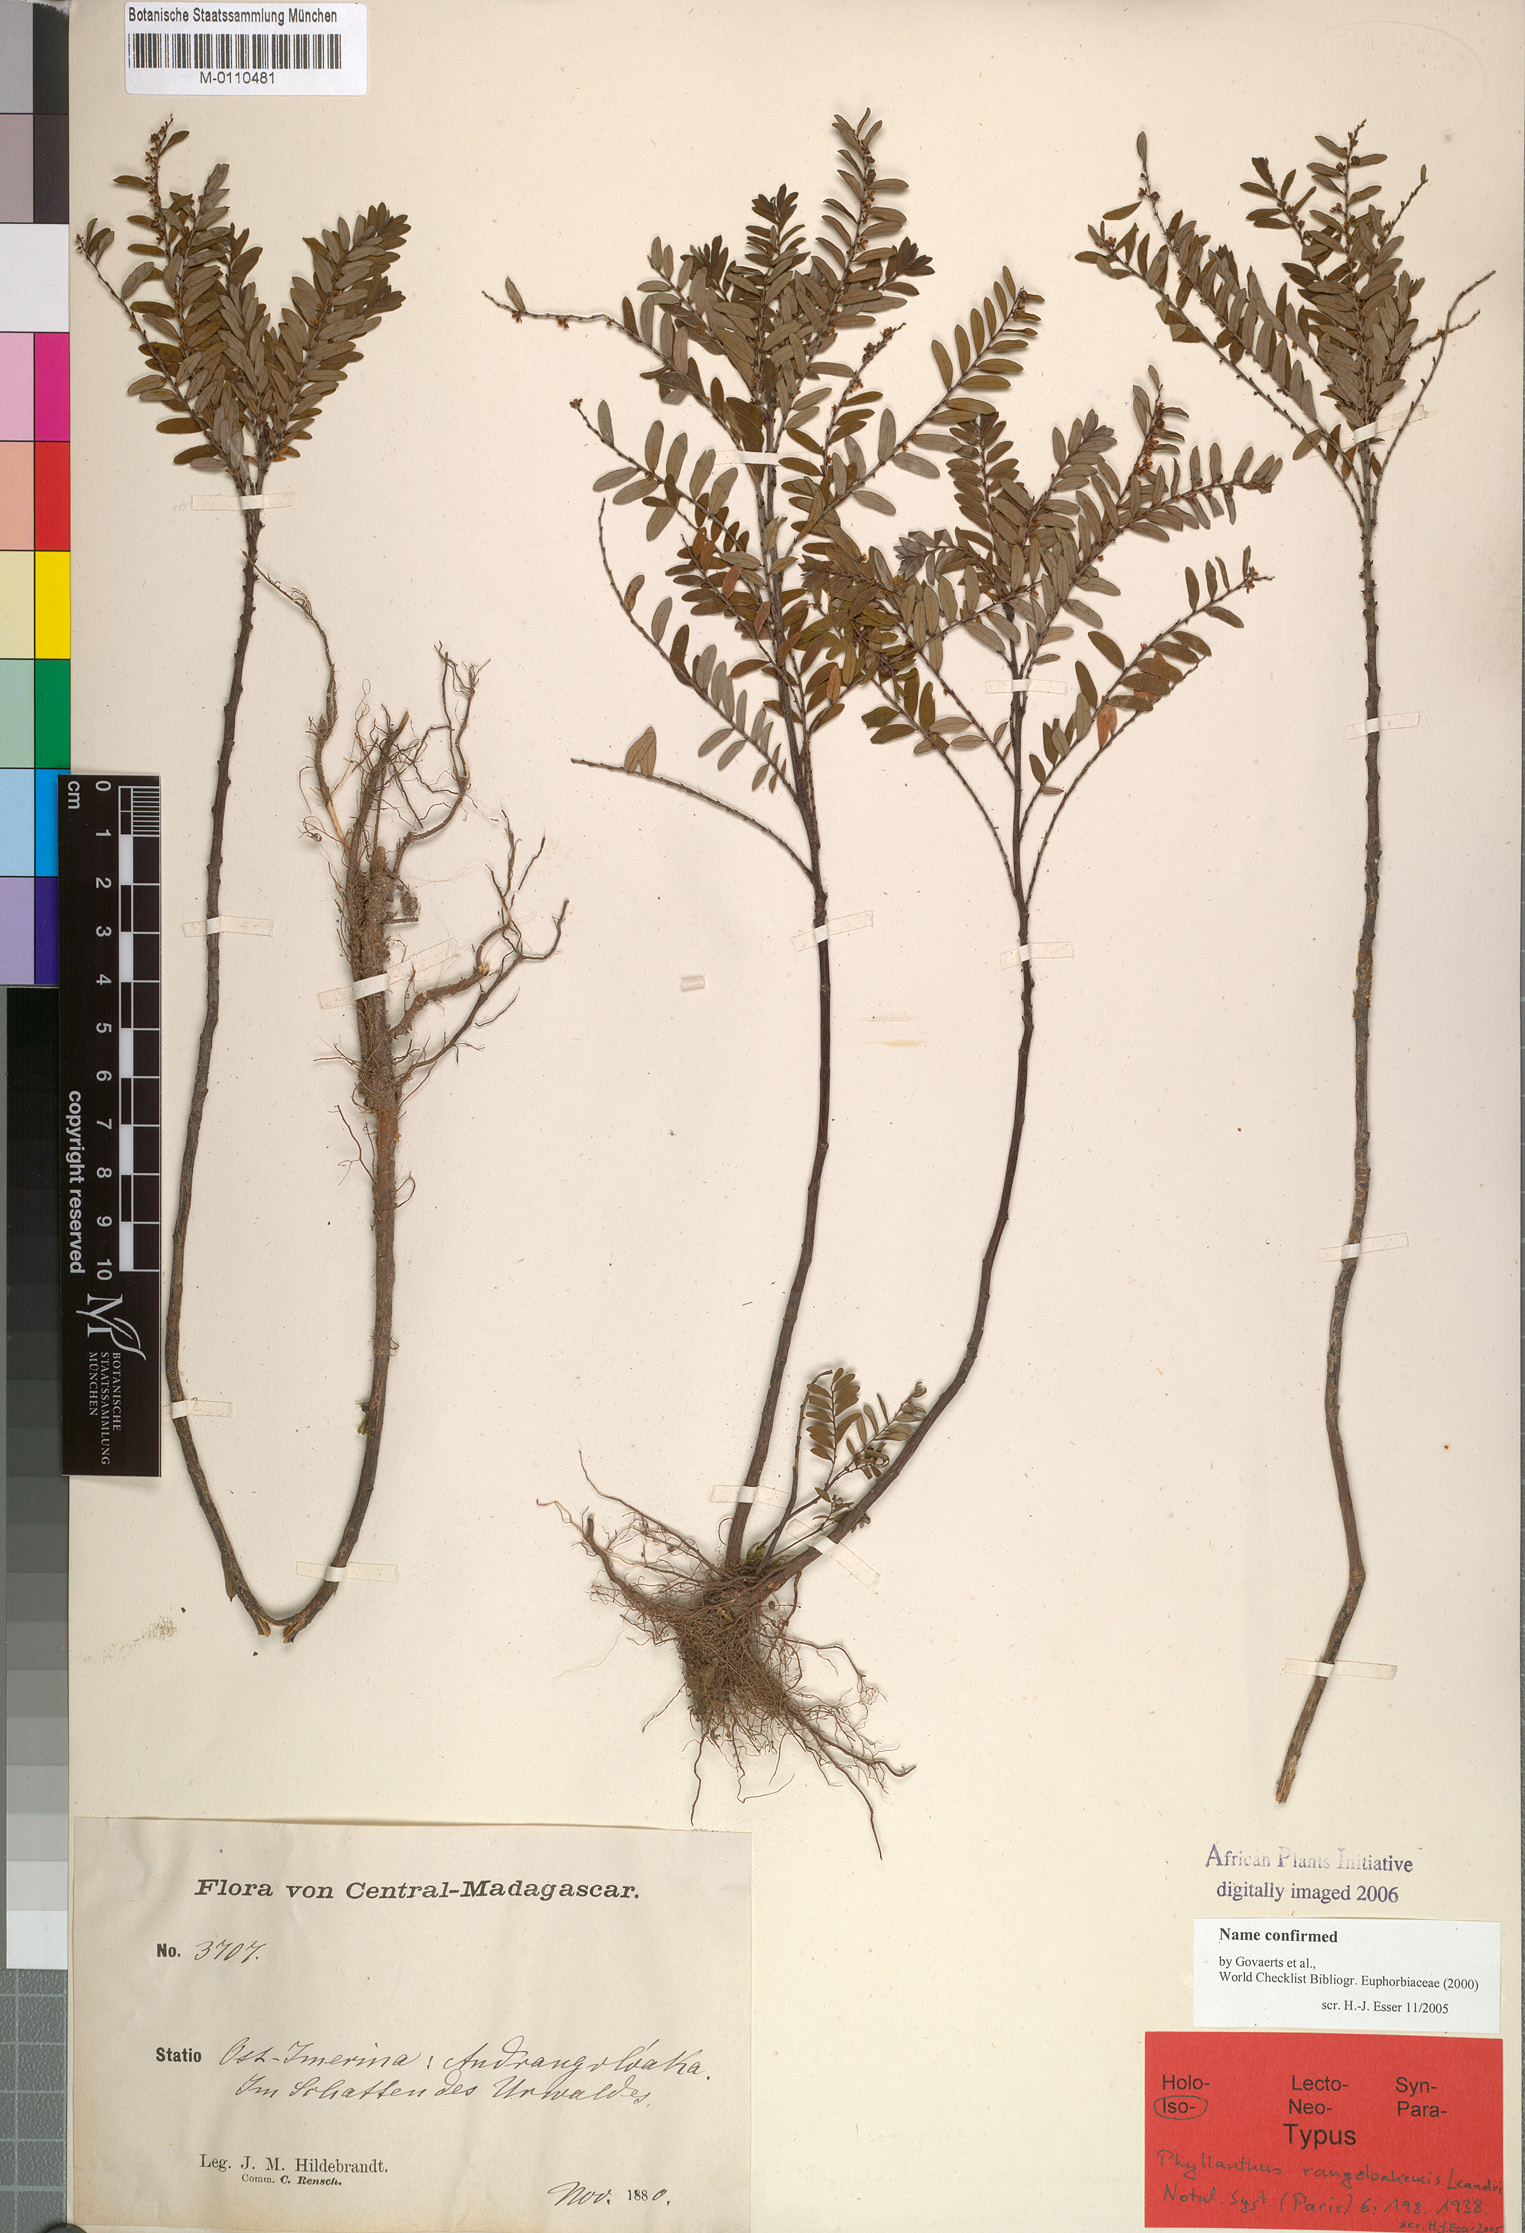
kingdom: Plantae
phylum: Tracheophyta
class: Magnoliopsida
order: Malpighiales
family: Phyllanthaceae
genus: Phyllanthus
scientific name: Phyllanthus rangoloakensis
